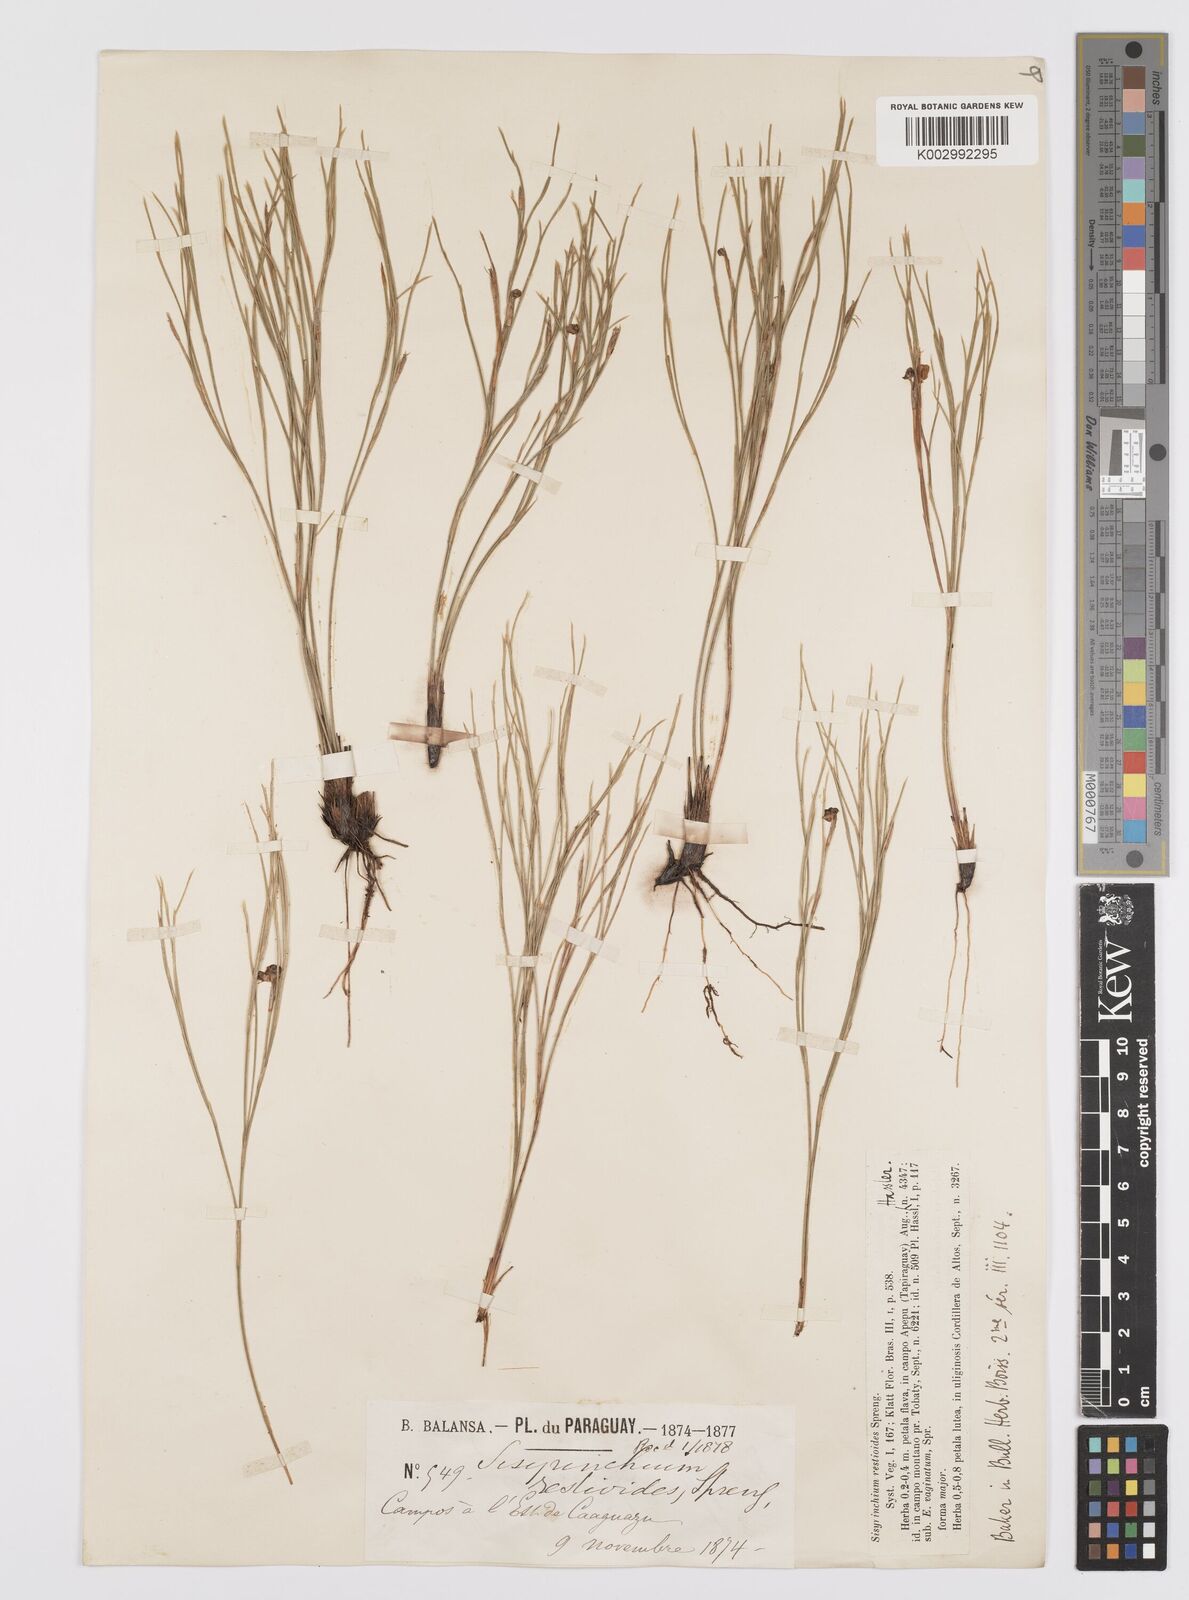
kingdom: Plantae
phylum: Tracheophyta
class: Liliopsida
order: Asparagales
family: Iridaceae
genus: Sisyrinchium
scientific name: Sisyrinchium restioides
